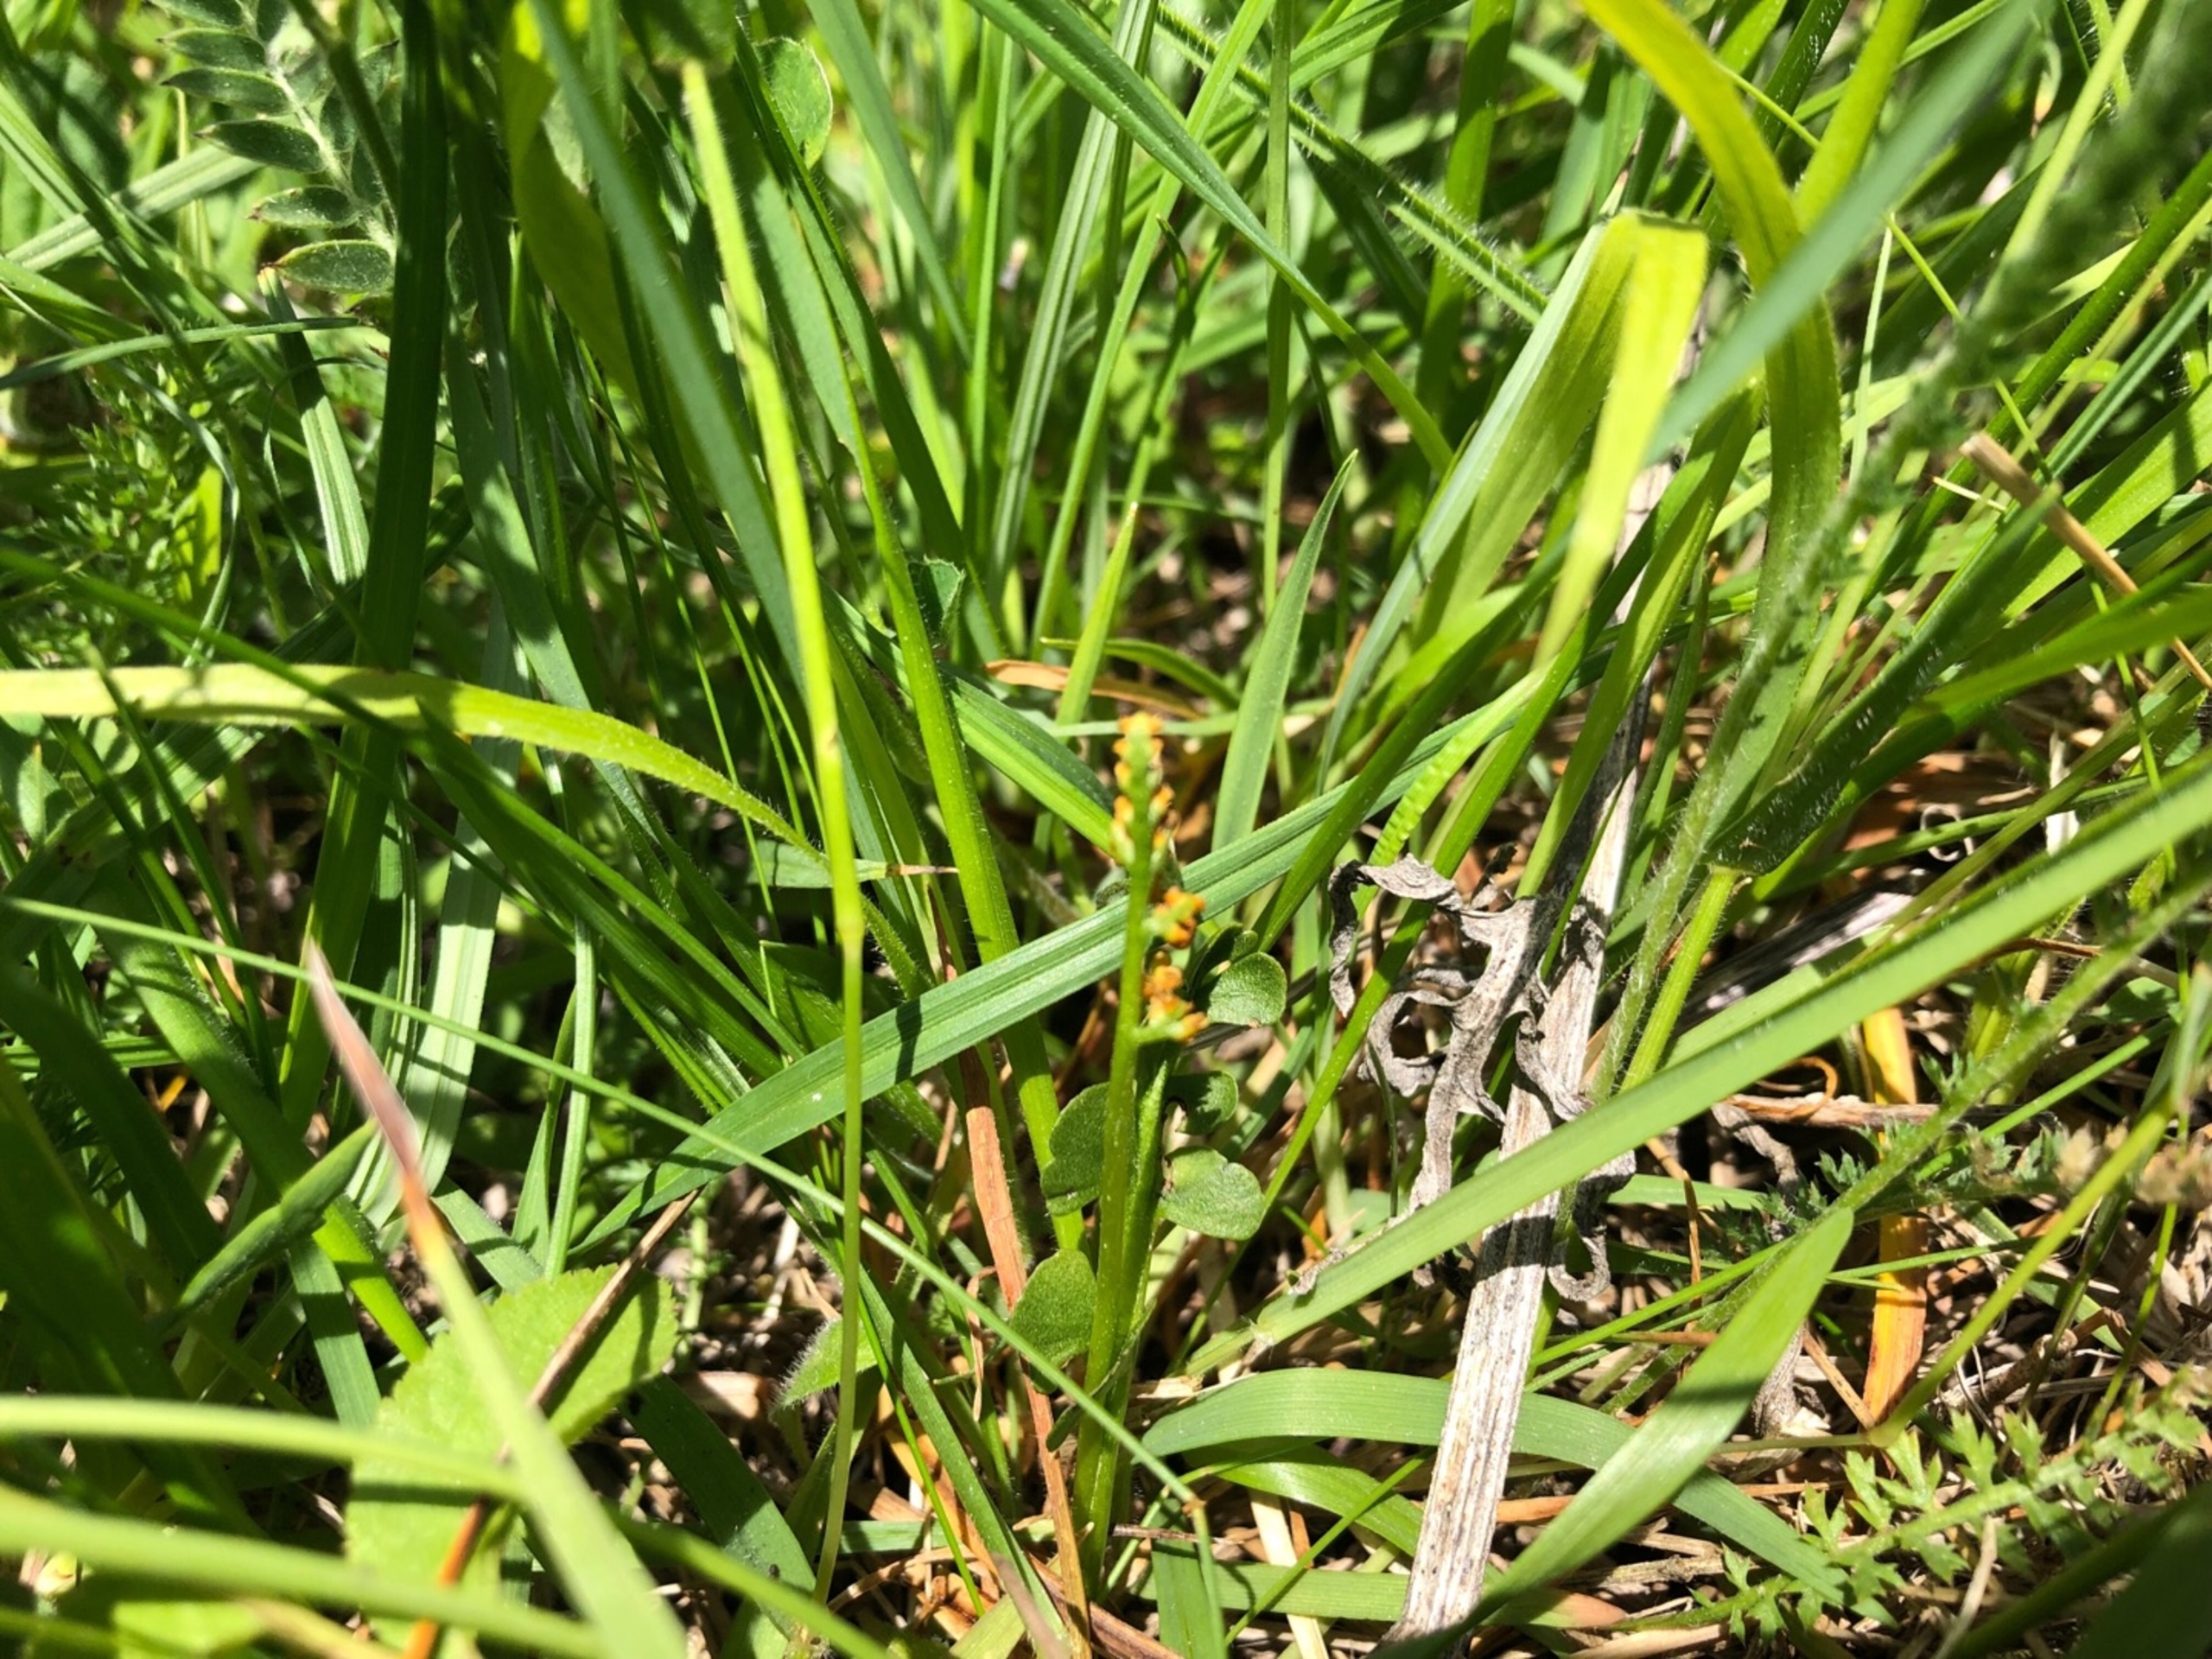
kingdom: Plantae
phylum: Tracheophyta
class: Polypodiopsida
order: Ophioglossales
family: Ophioglossaceae
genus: Botrychium
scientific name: Botrychium lunaria
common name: Almindelig månerude
